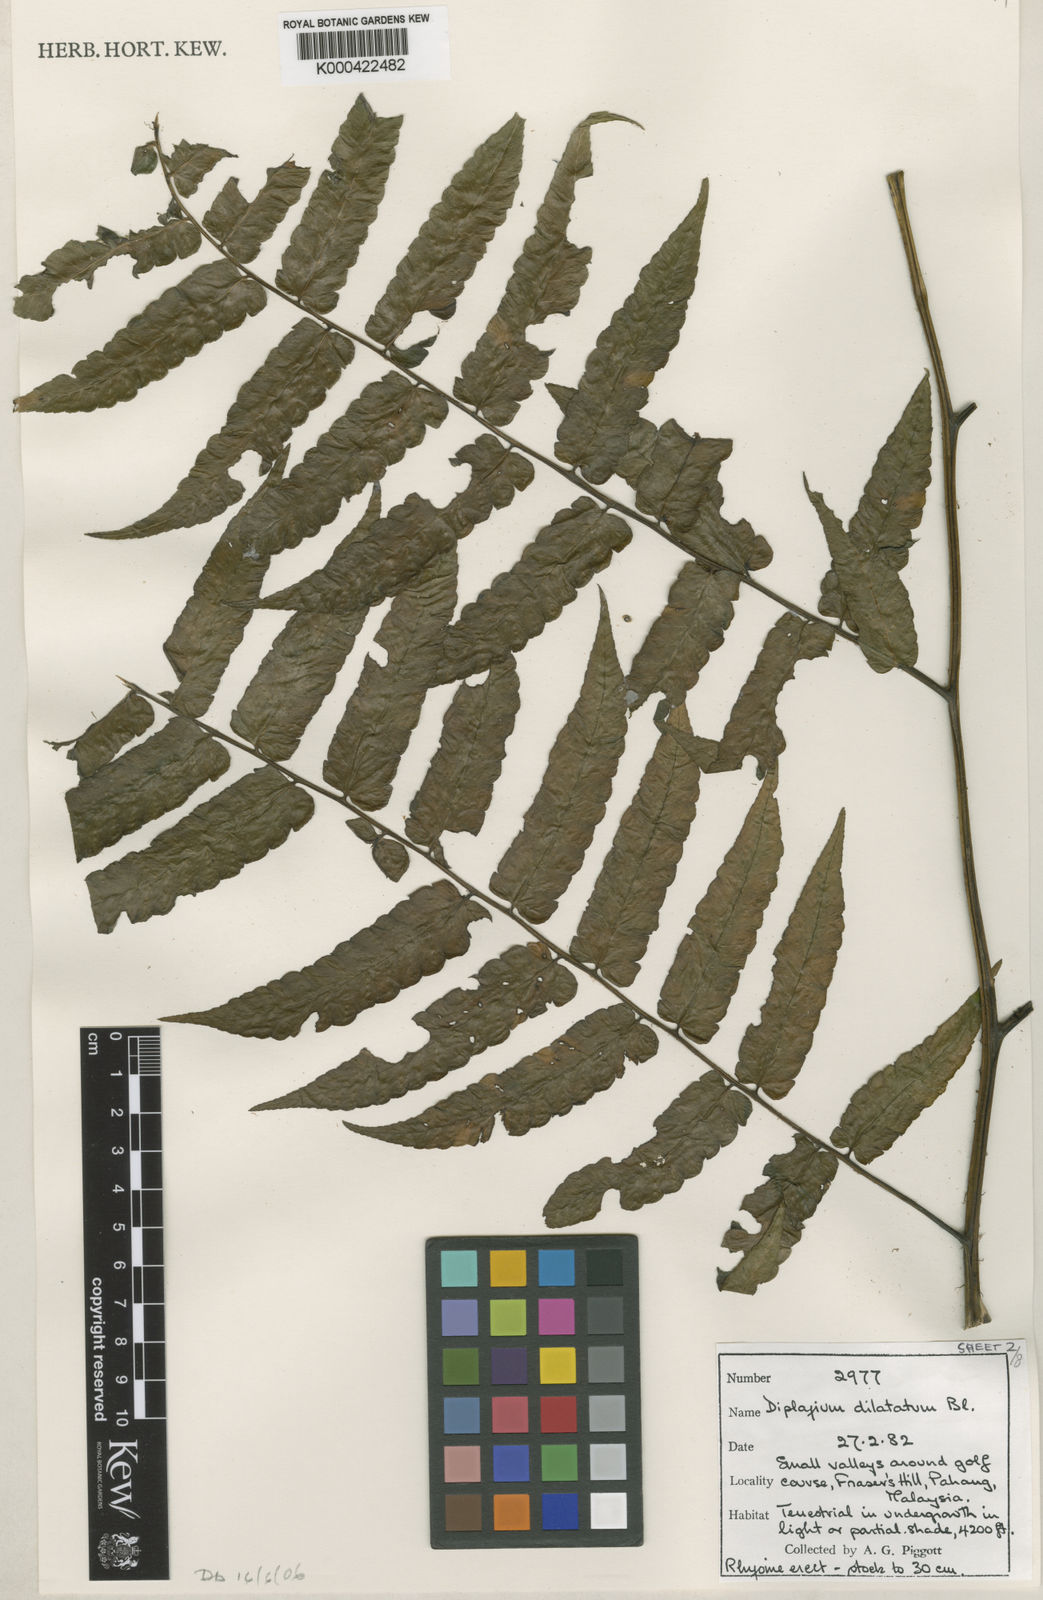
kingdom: Plantae
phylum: Tracheophyta
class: Polypodiopsida
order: Polypodiales
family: Athyriaceae
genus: Diplazium
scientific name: Diplazium dilatatum
